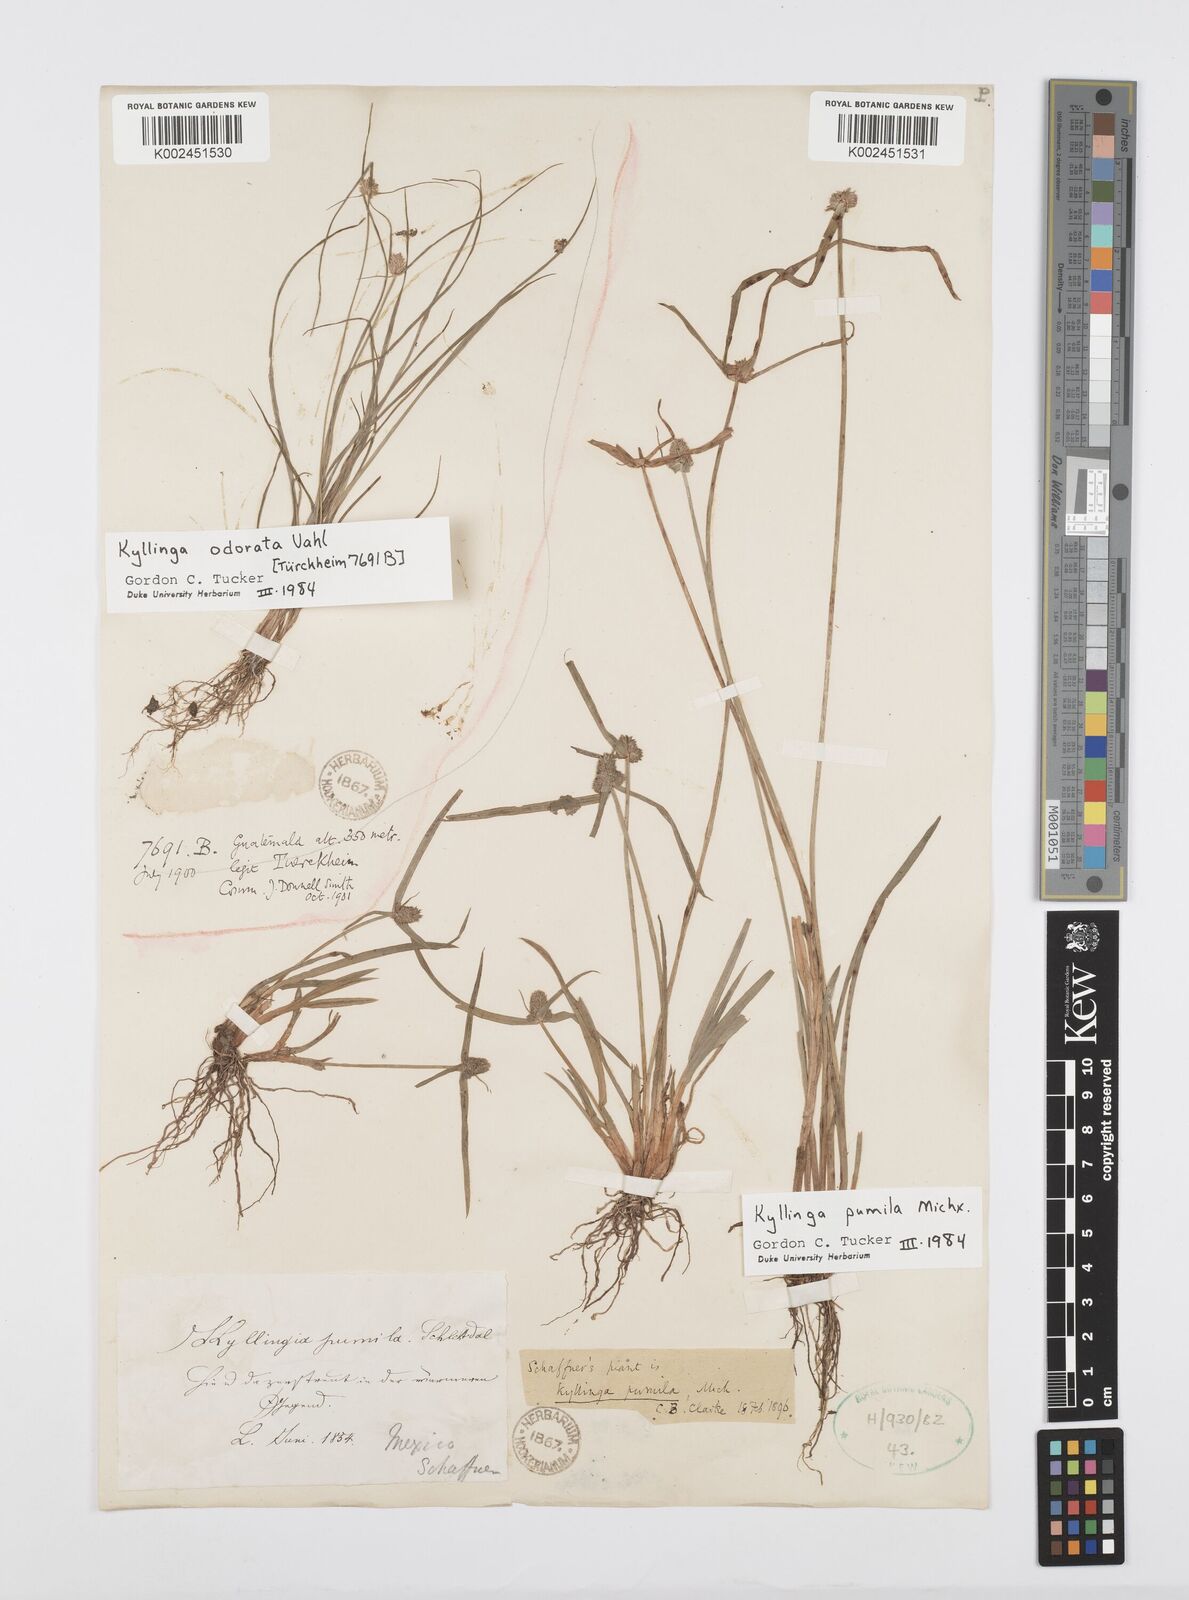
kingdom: Plantae
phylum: Tracheophyta
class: Liliopsida
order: Poales
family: Cyperaceae
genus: Cyperus
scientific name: Cyperus hortensis
